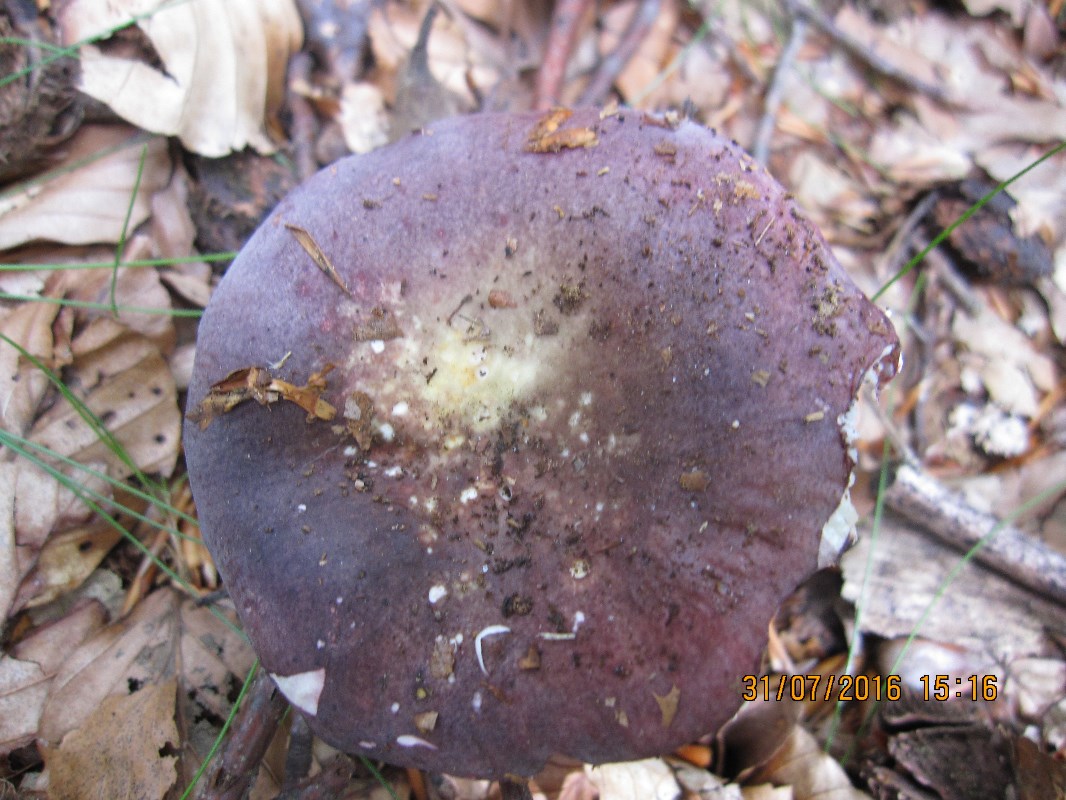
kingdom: Fungi
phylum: Basidiomycota
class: Agaricomycetes
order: Russulales
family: Russulaceae
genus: Russula
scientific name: Russula brunneoviolacea
